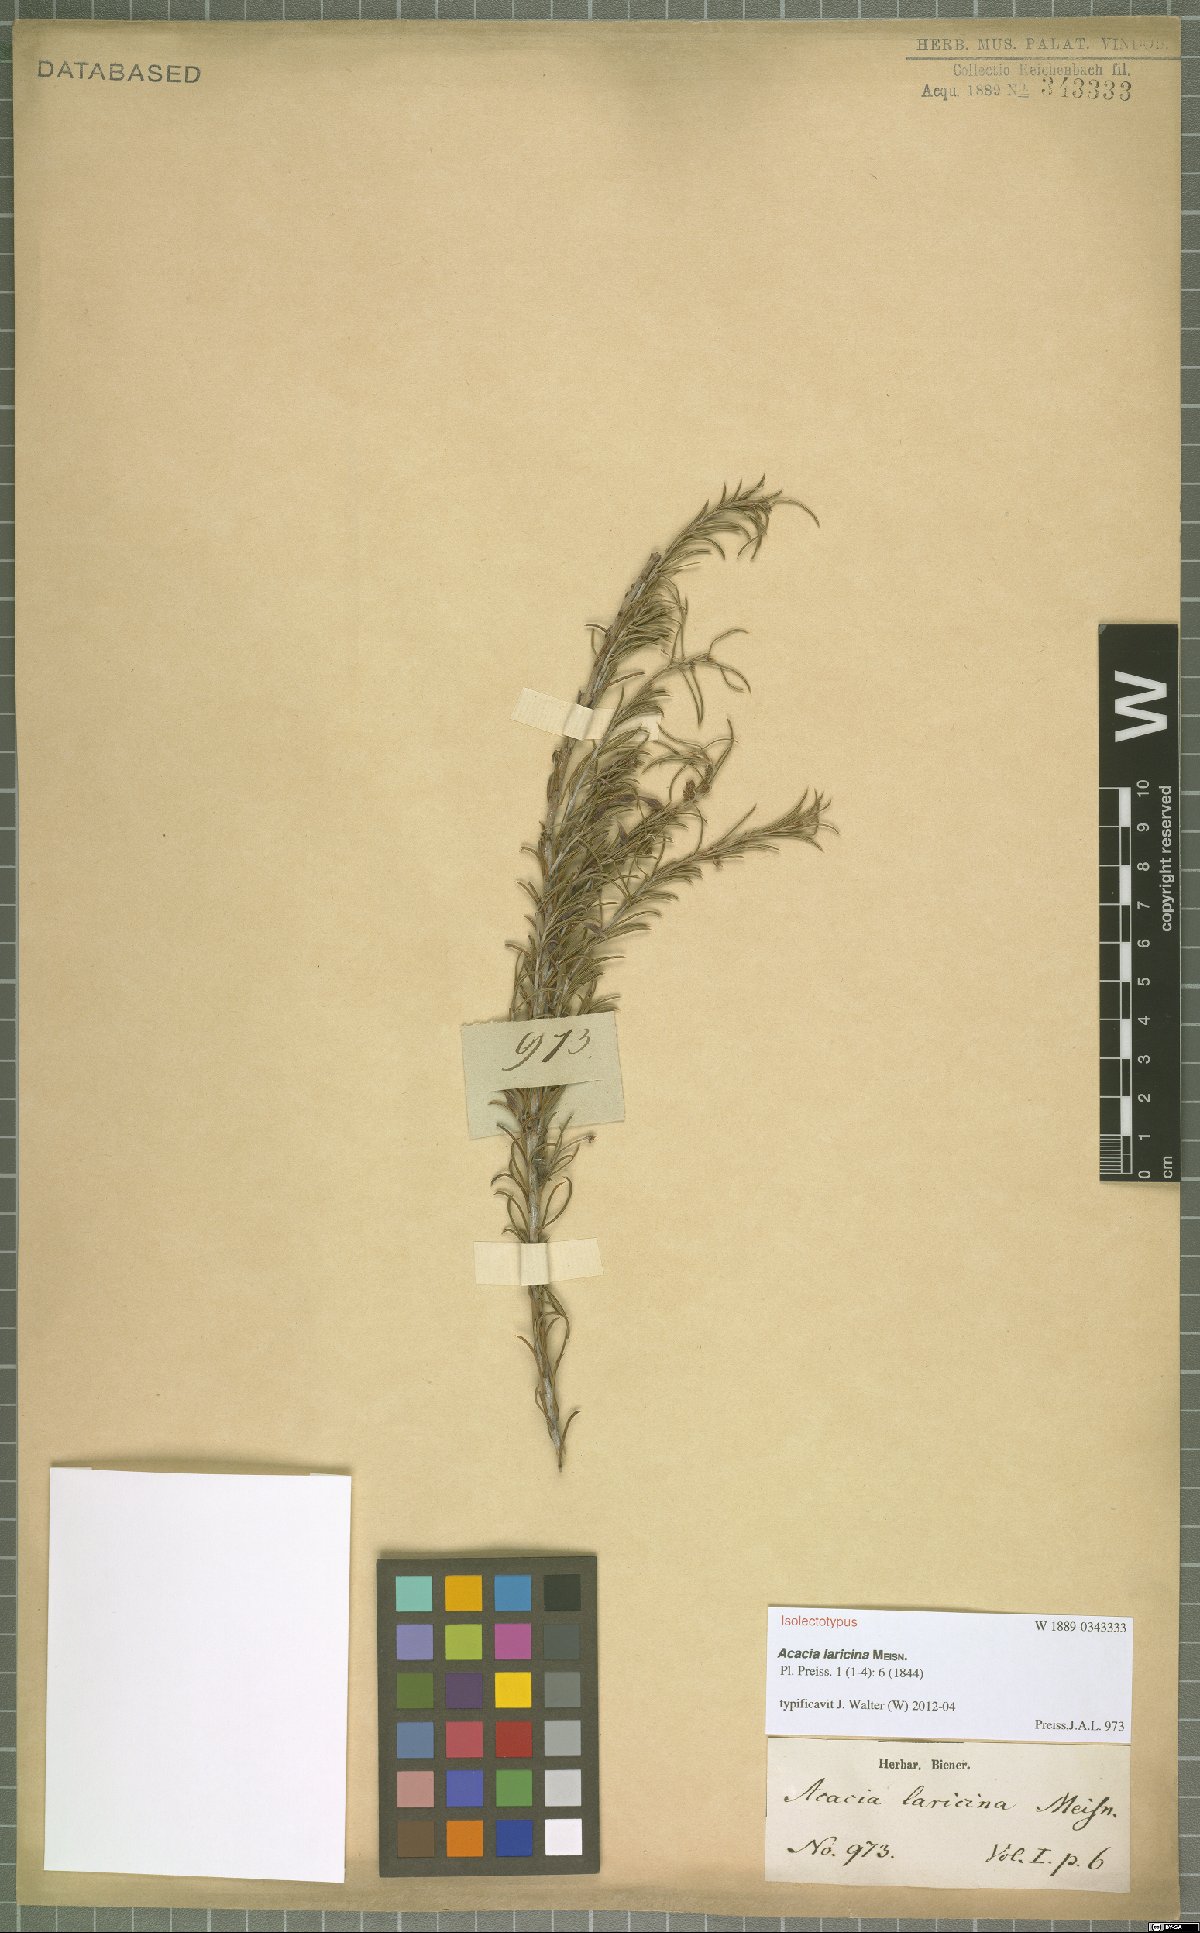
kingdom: Plantae
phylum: Tracheophyta
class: Magnoliopsida
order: Fabales
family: Fabaceae
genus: Acacia
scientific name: Acacia laricina
